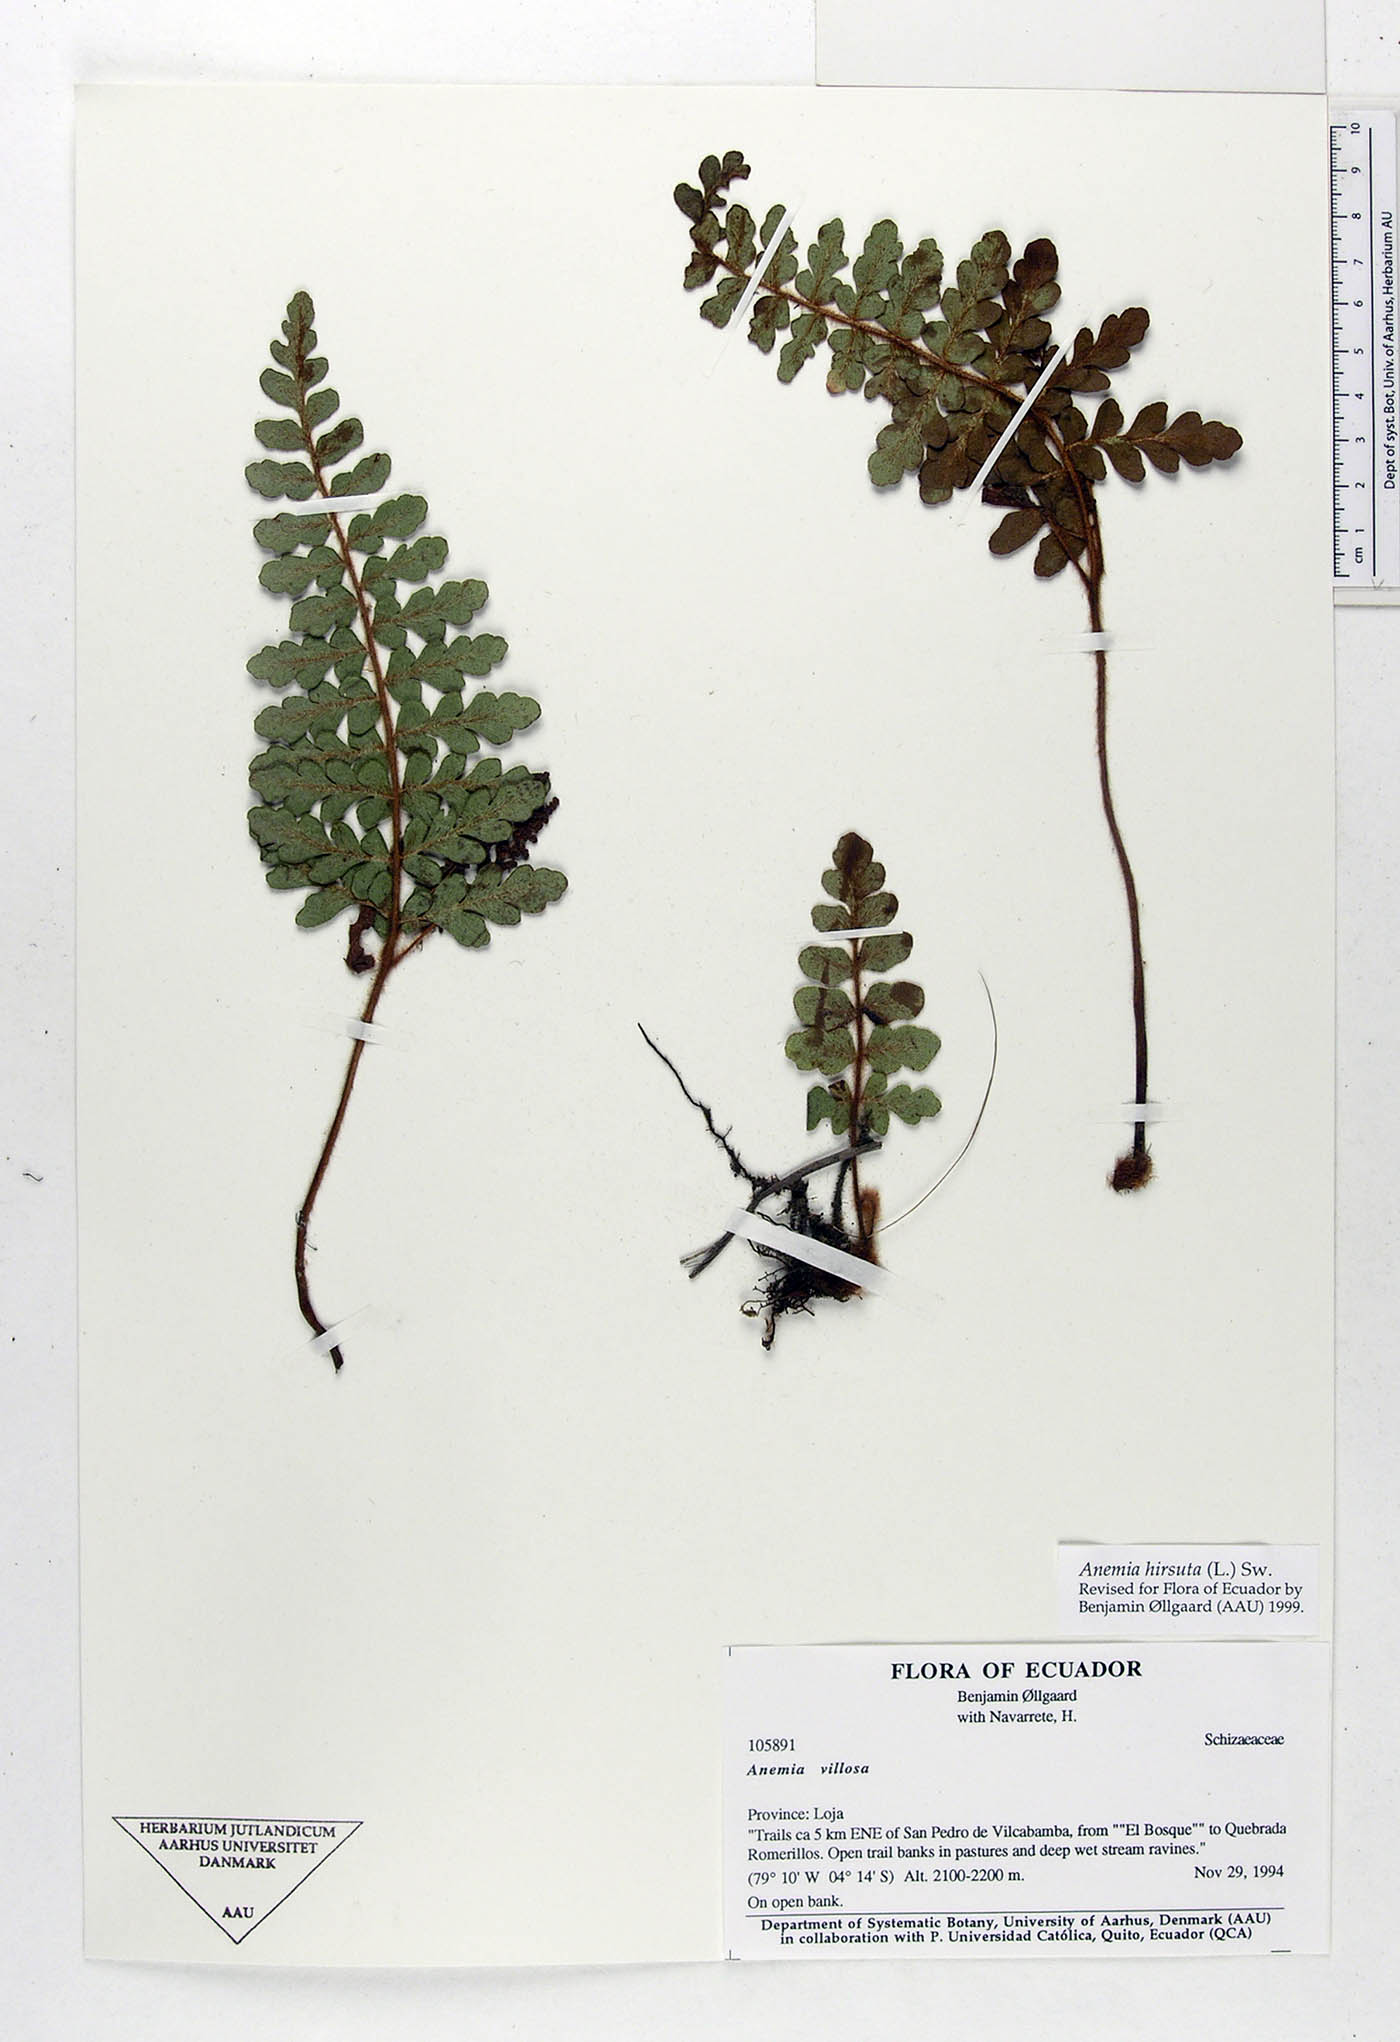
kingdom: Plantae
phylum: Tracheophyta
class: Polypodiopsida
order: Schizaeales
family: Anemiaceae
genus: Anemia
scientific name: Anemia villosa
